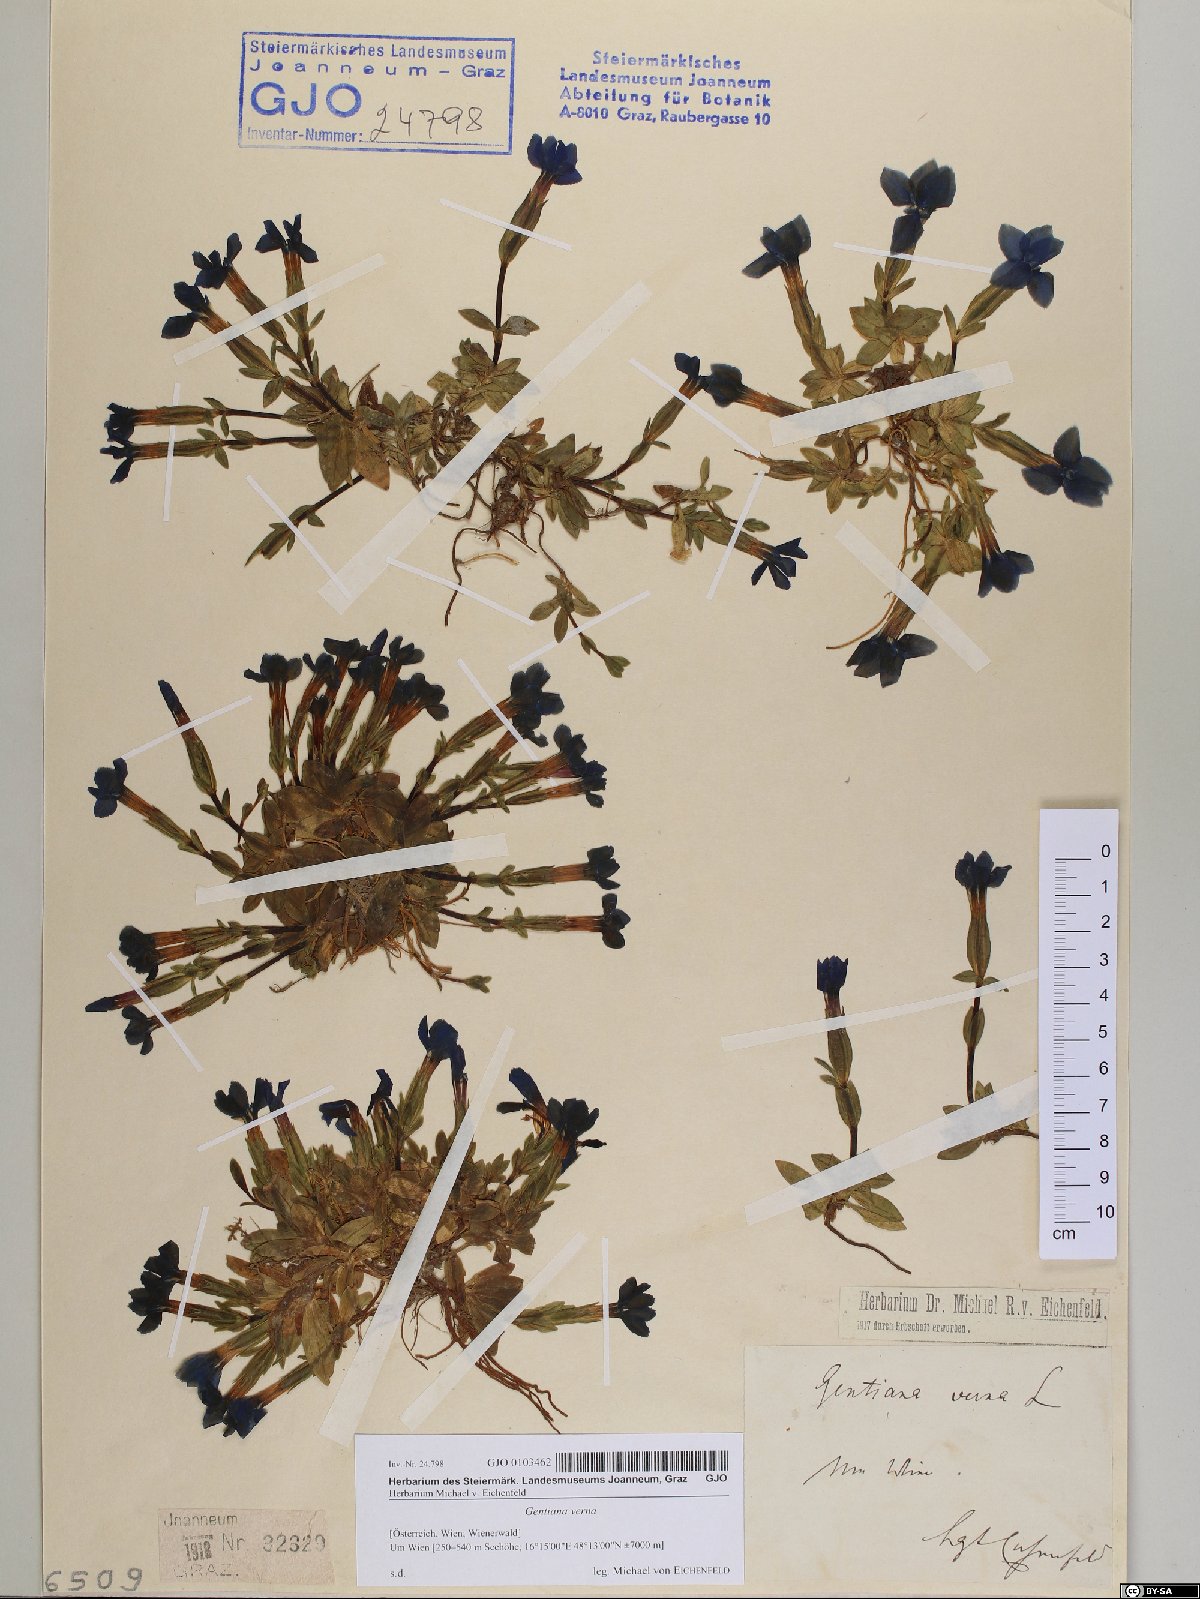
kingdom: Plantae
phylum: Tracheophyta
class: Magnoliopsida
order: Gentianales
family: Gentianaceae
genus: Gentiana
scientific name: Gentiana verna
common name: Spring gentian
